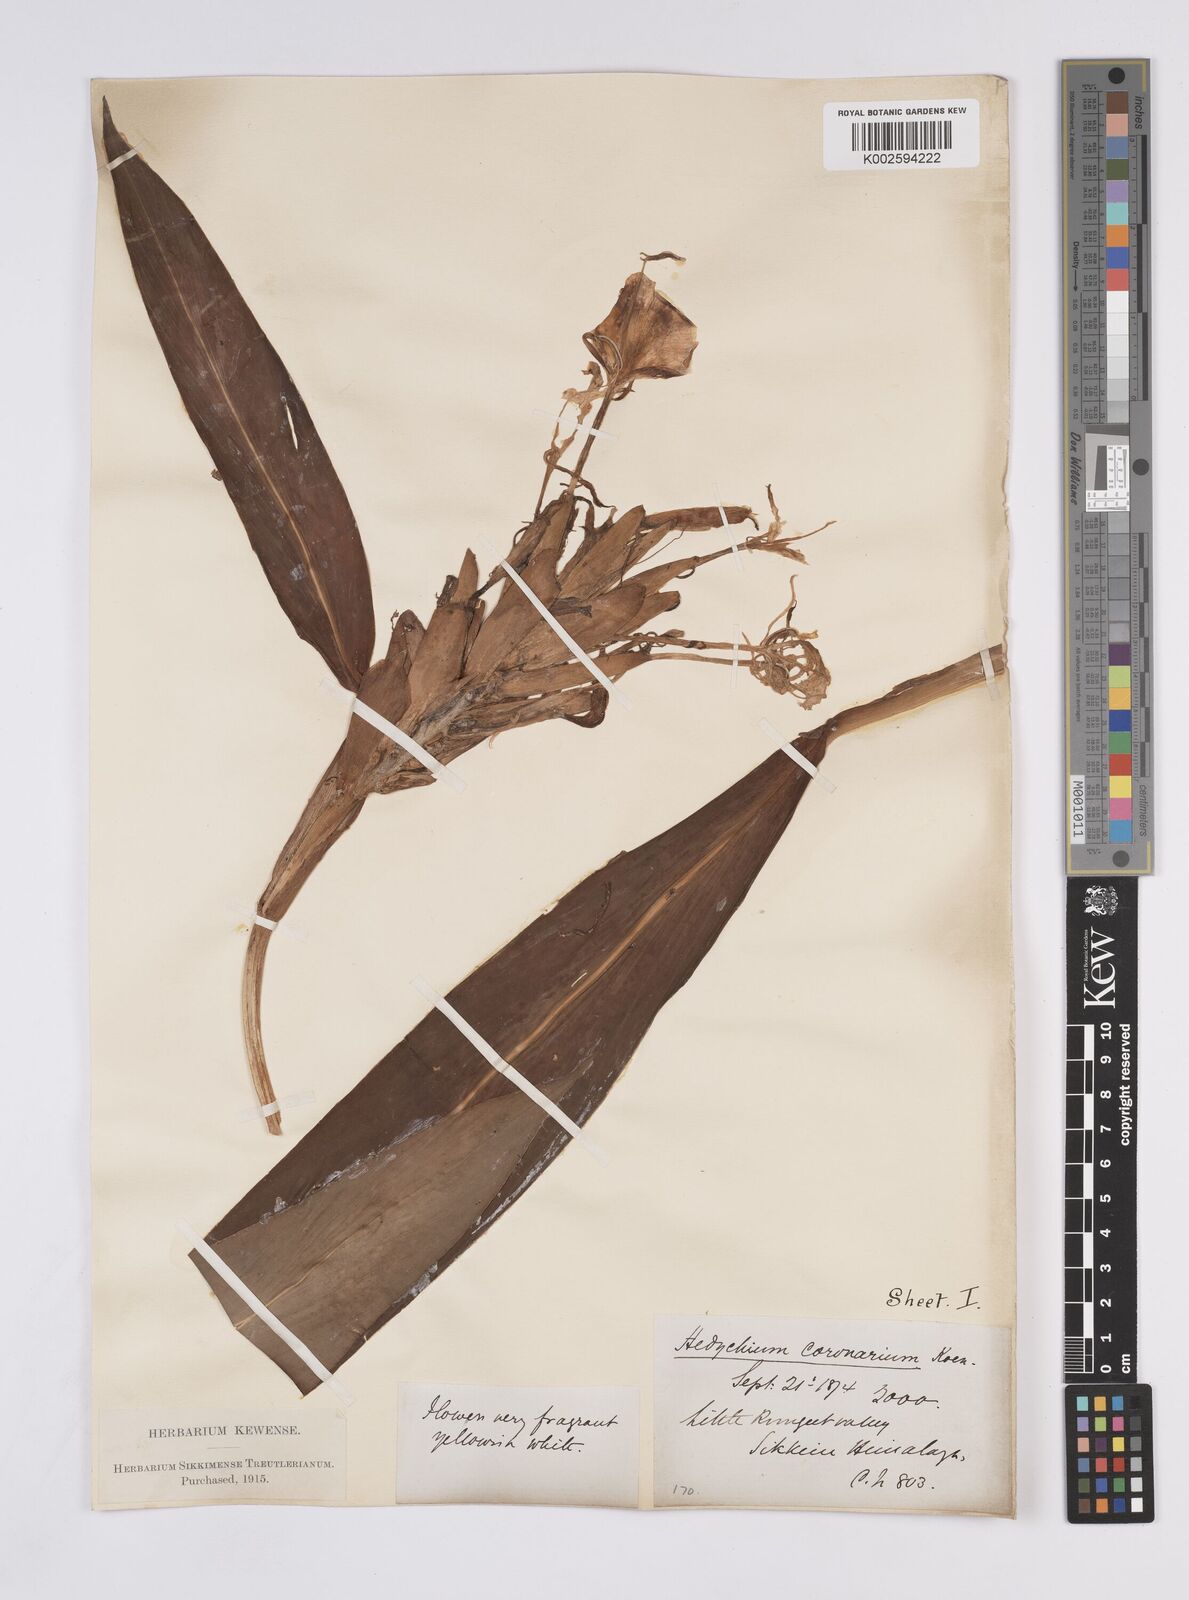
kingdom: Plantae
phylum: Tracheophyta
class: Liliopsida
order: Zingiberales
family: Zingiberaceae
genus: Hedychium
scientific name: Hedychium coronarium
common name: White garland-lily
